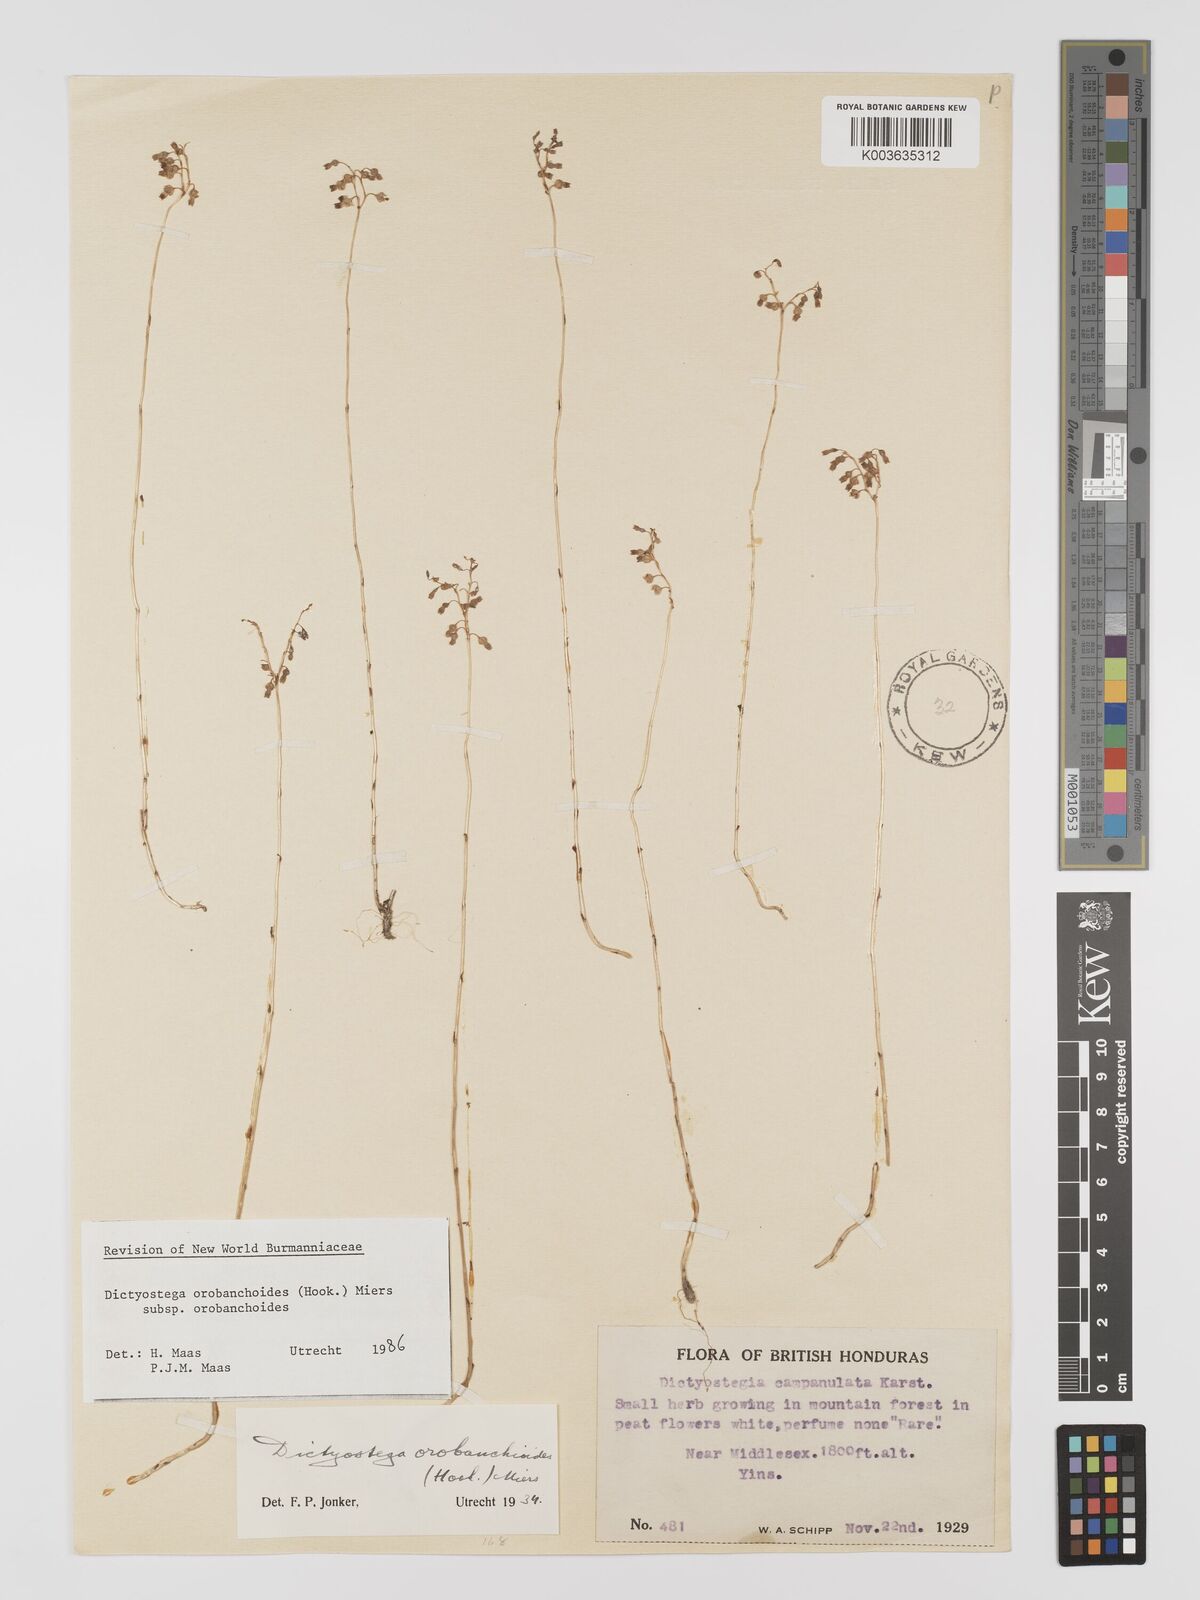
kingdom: Plantae
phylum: Tracheophyta
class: Liliopsida
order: Dioscoreales
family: Burmanniaceae
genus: Dictyostega
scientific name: Dictyostega orobanchoides
